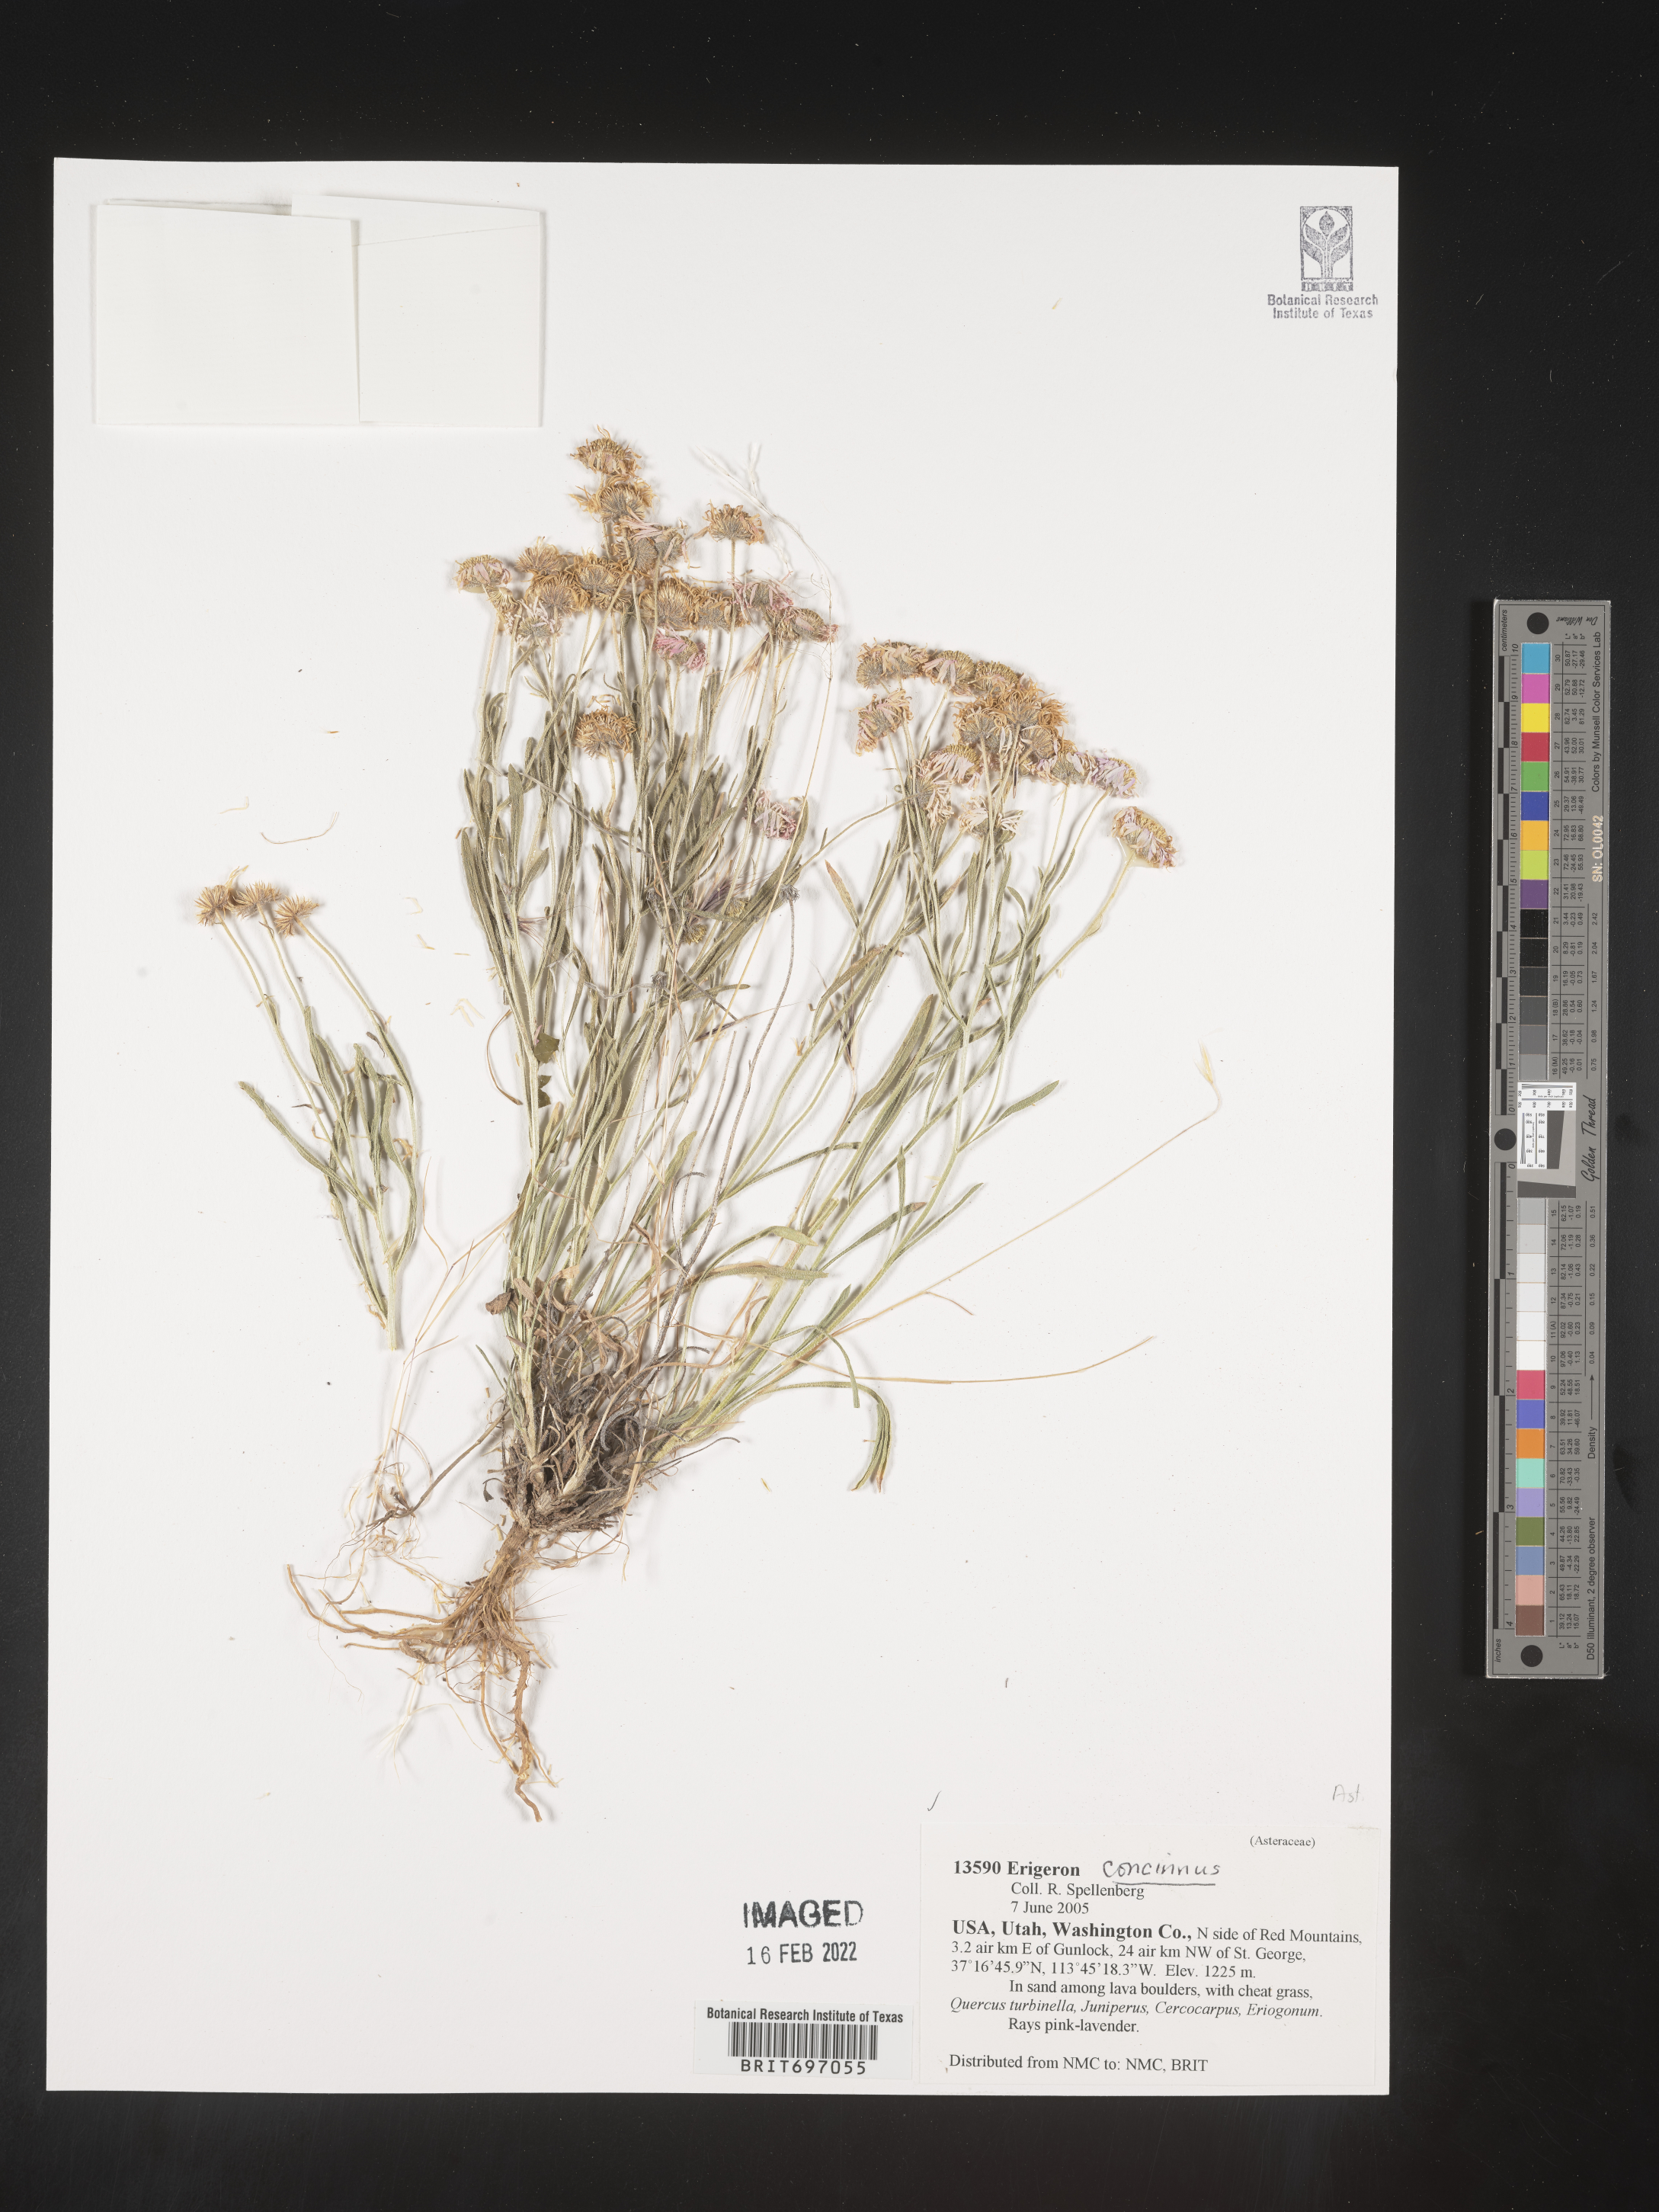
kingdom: Plantae
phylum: Tracheophyta
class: Magnoliopsida
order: Asterales
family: Asteraceae
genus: Erigeron
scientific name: Erigeron concinnus
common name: Navajo fleabane
